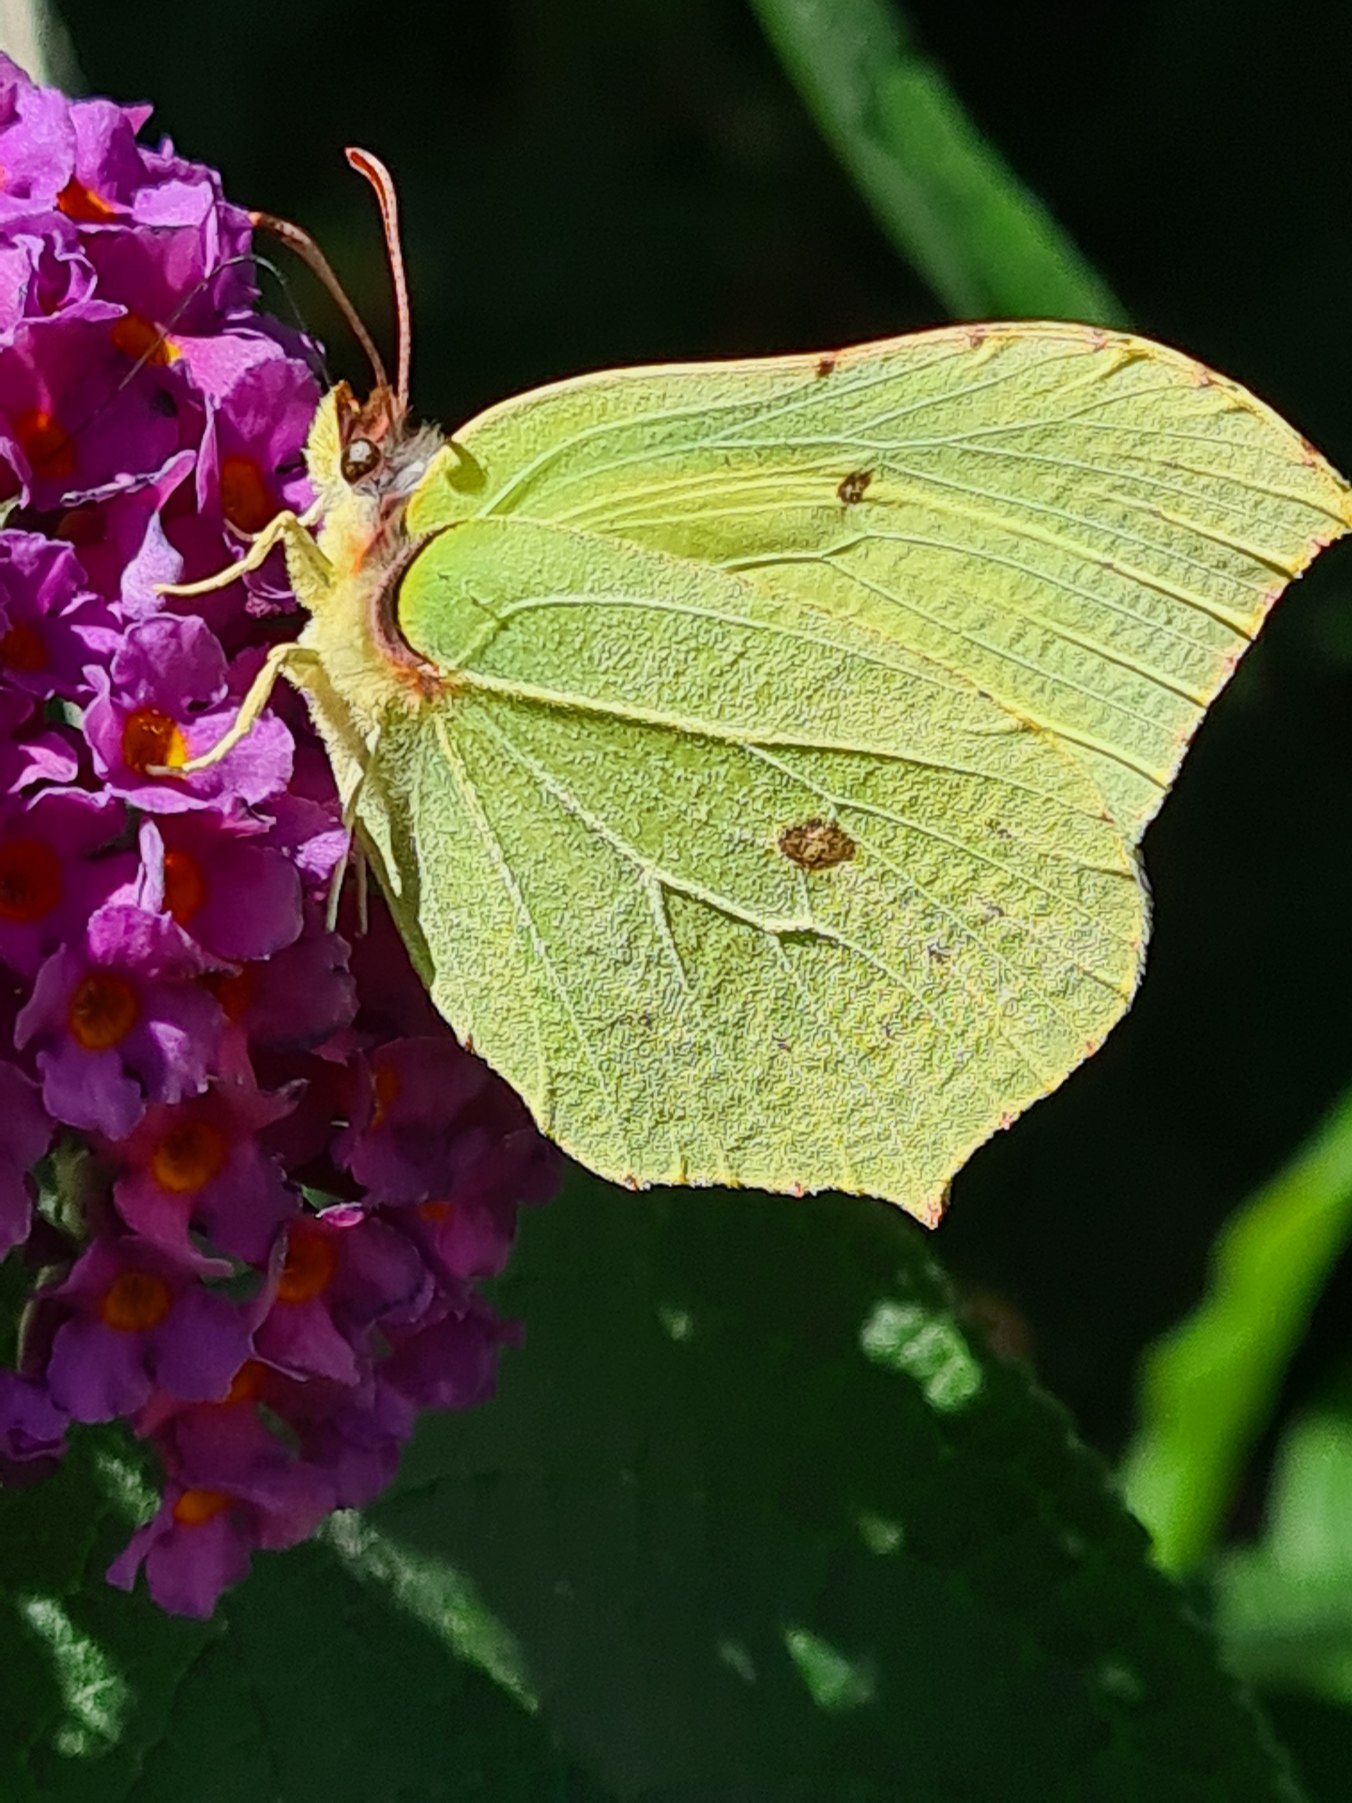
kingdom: Animalia
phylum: Arthropoda
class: Insecta
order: Lepidoptera
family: Pieridae
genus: Gonepteryx
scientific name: Gonepteryx rhamni
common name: Citronsommerfugl
